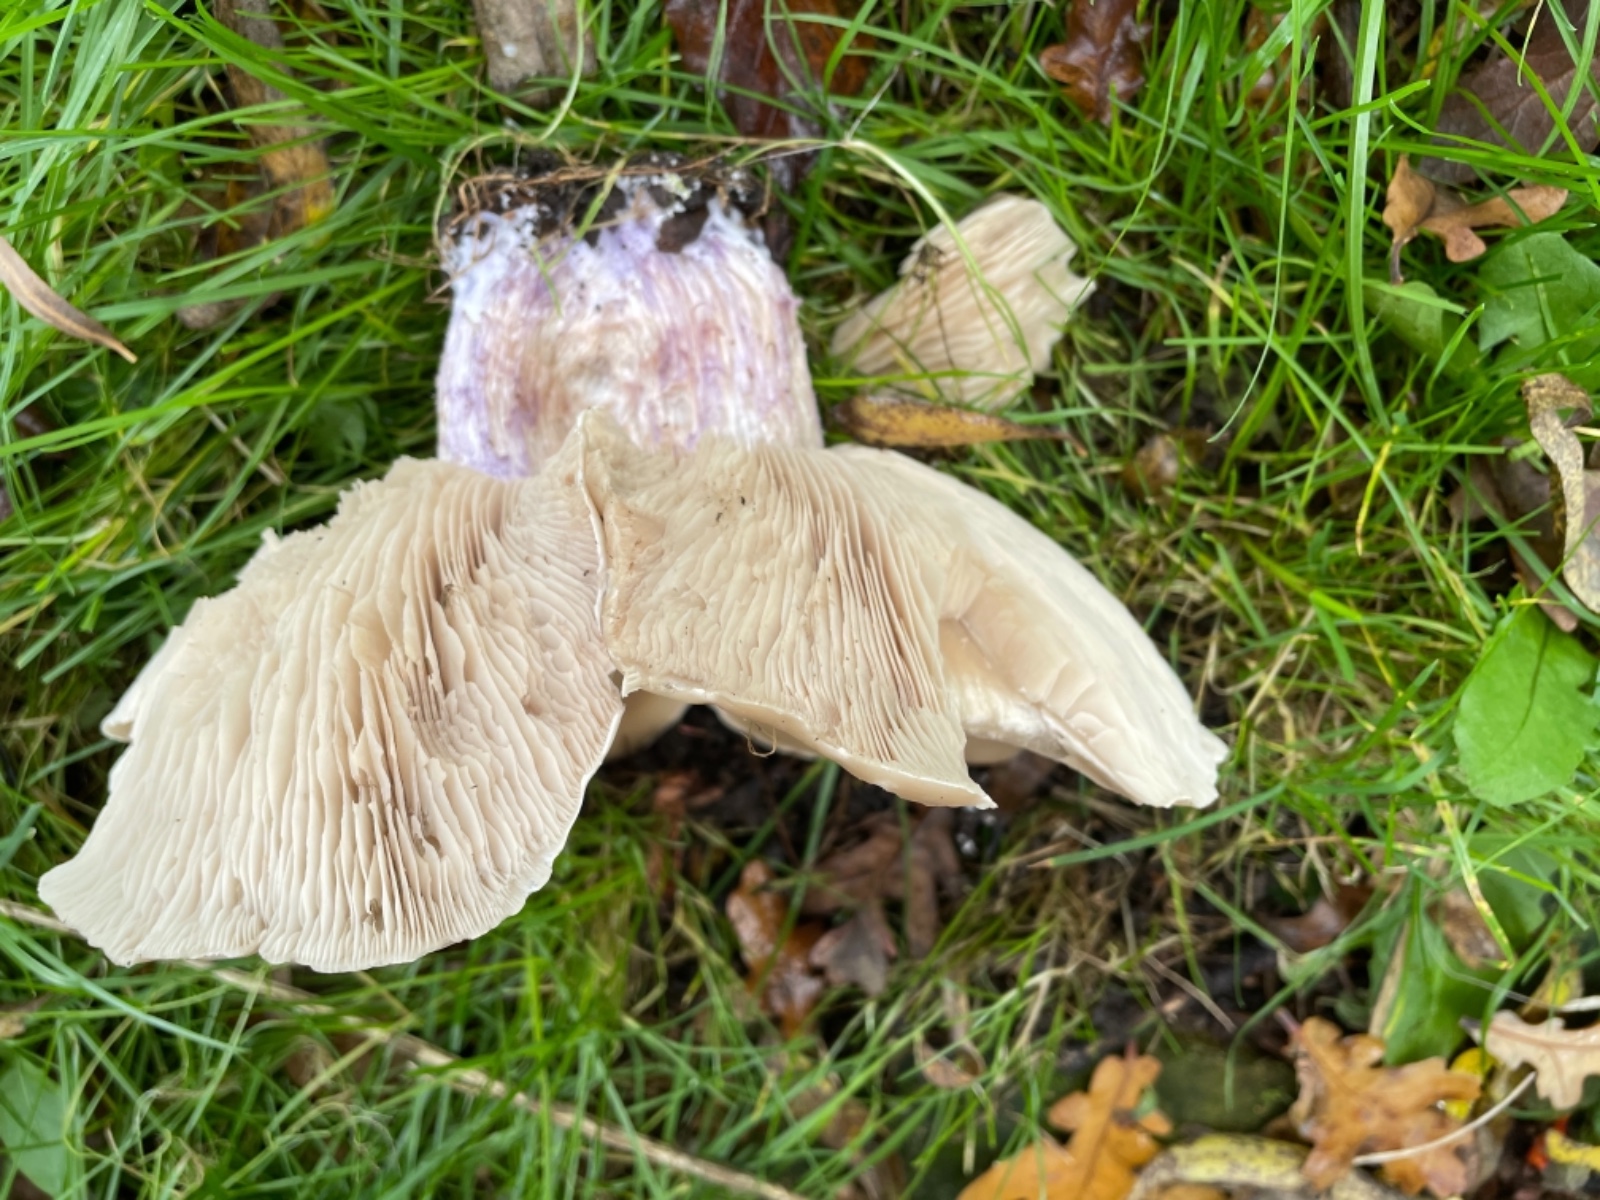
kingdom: Fungi
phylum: Basidiomycota
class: Agaricomycetes
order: Agaricales
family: Tricholomataceae
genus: Lepista
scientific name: Lepista personata
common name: bleg hekseringshat
